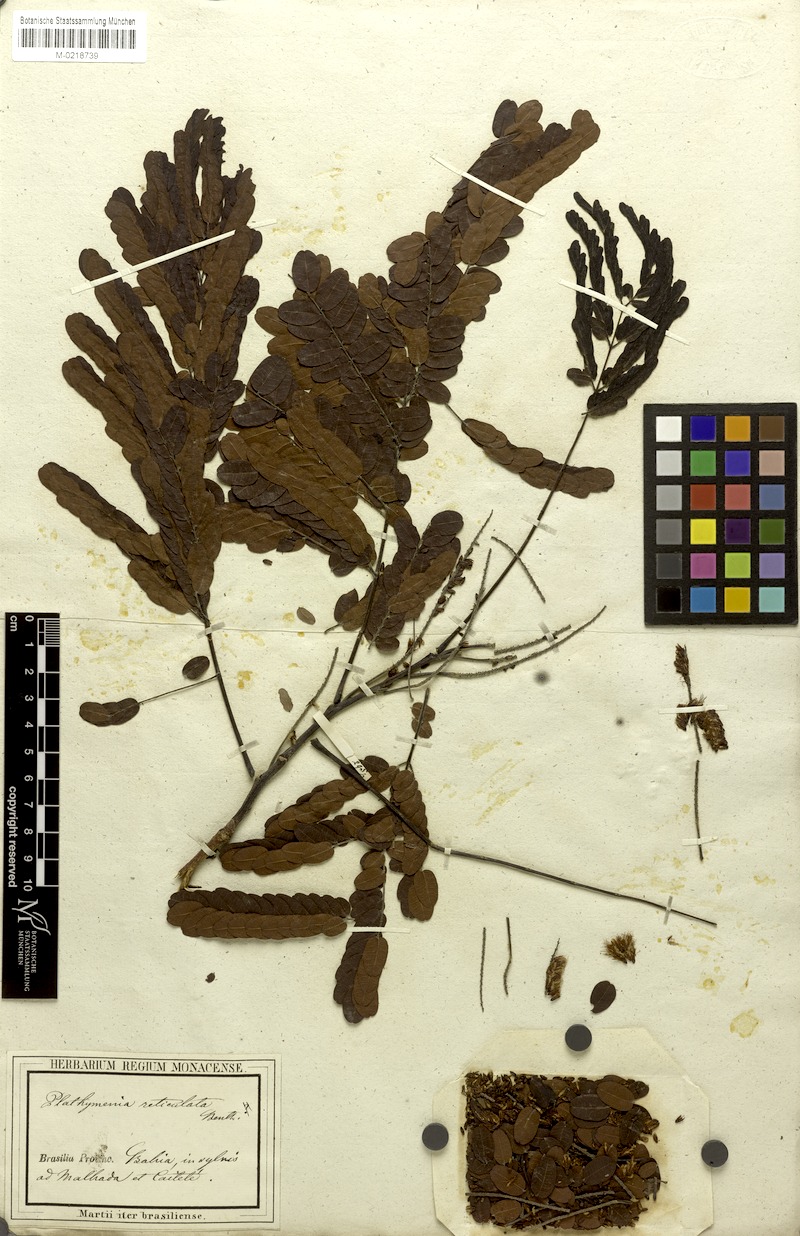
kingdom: Plantae
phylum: Tracheophyta
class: Magnoliopsida
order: Fabales
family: Fabaceae
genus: Plathymenia
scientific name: Plathymenia reticulata
